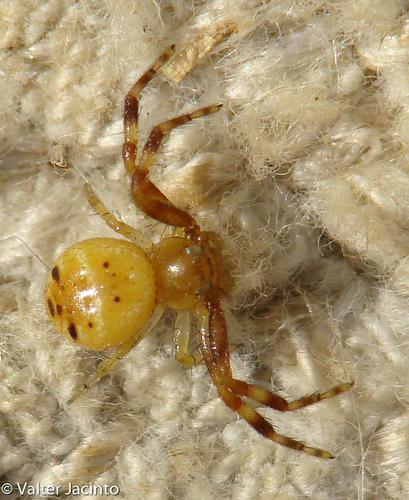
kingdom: Animalia
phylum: Arthropoda
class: Arachnida
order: Araneae
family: Thomisidae
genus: Synema
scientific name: Synema globosum
